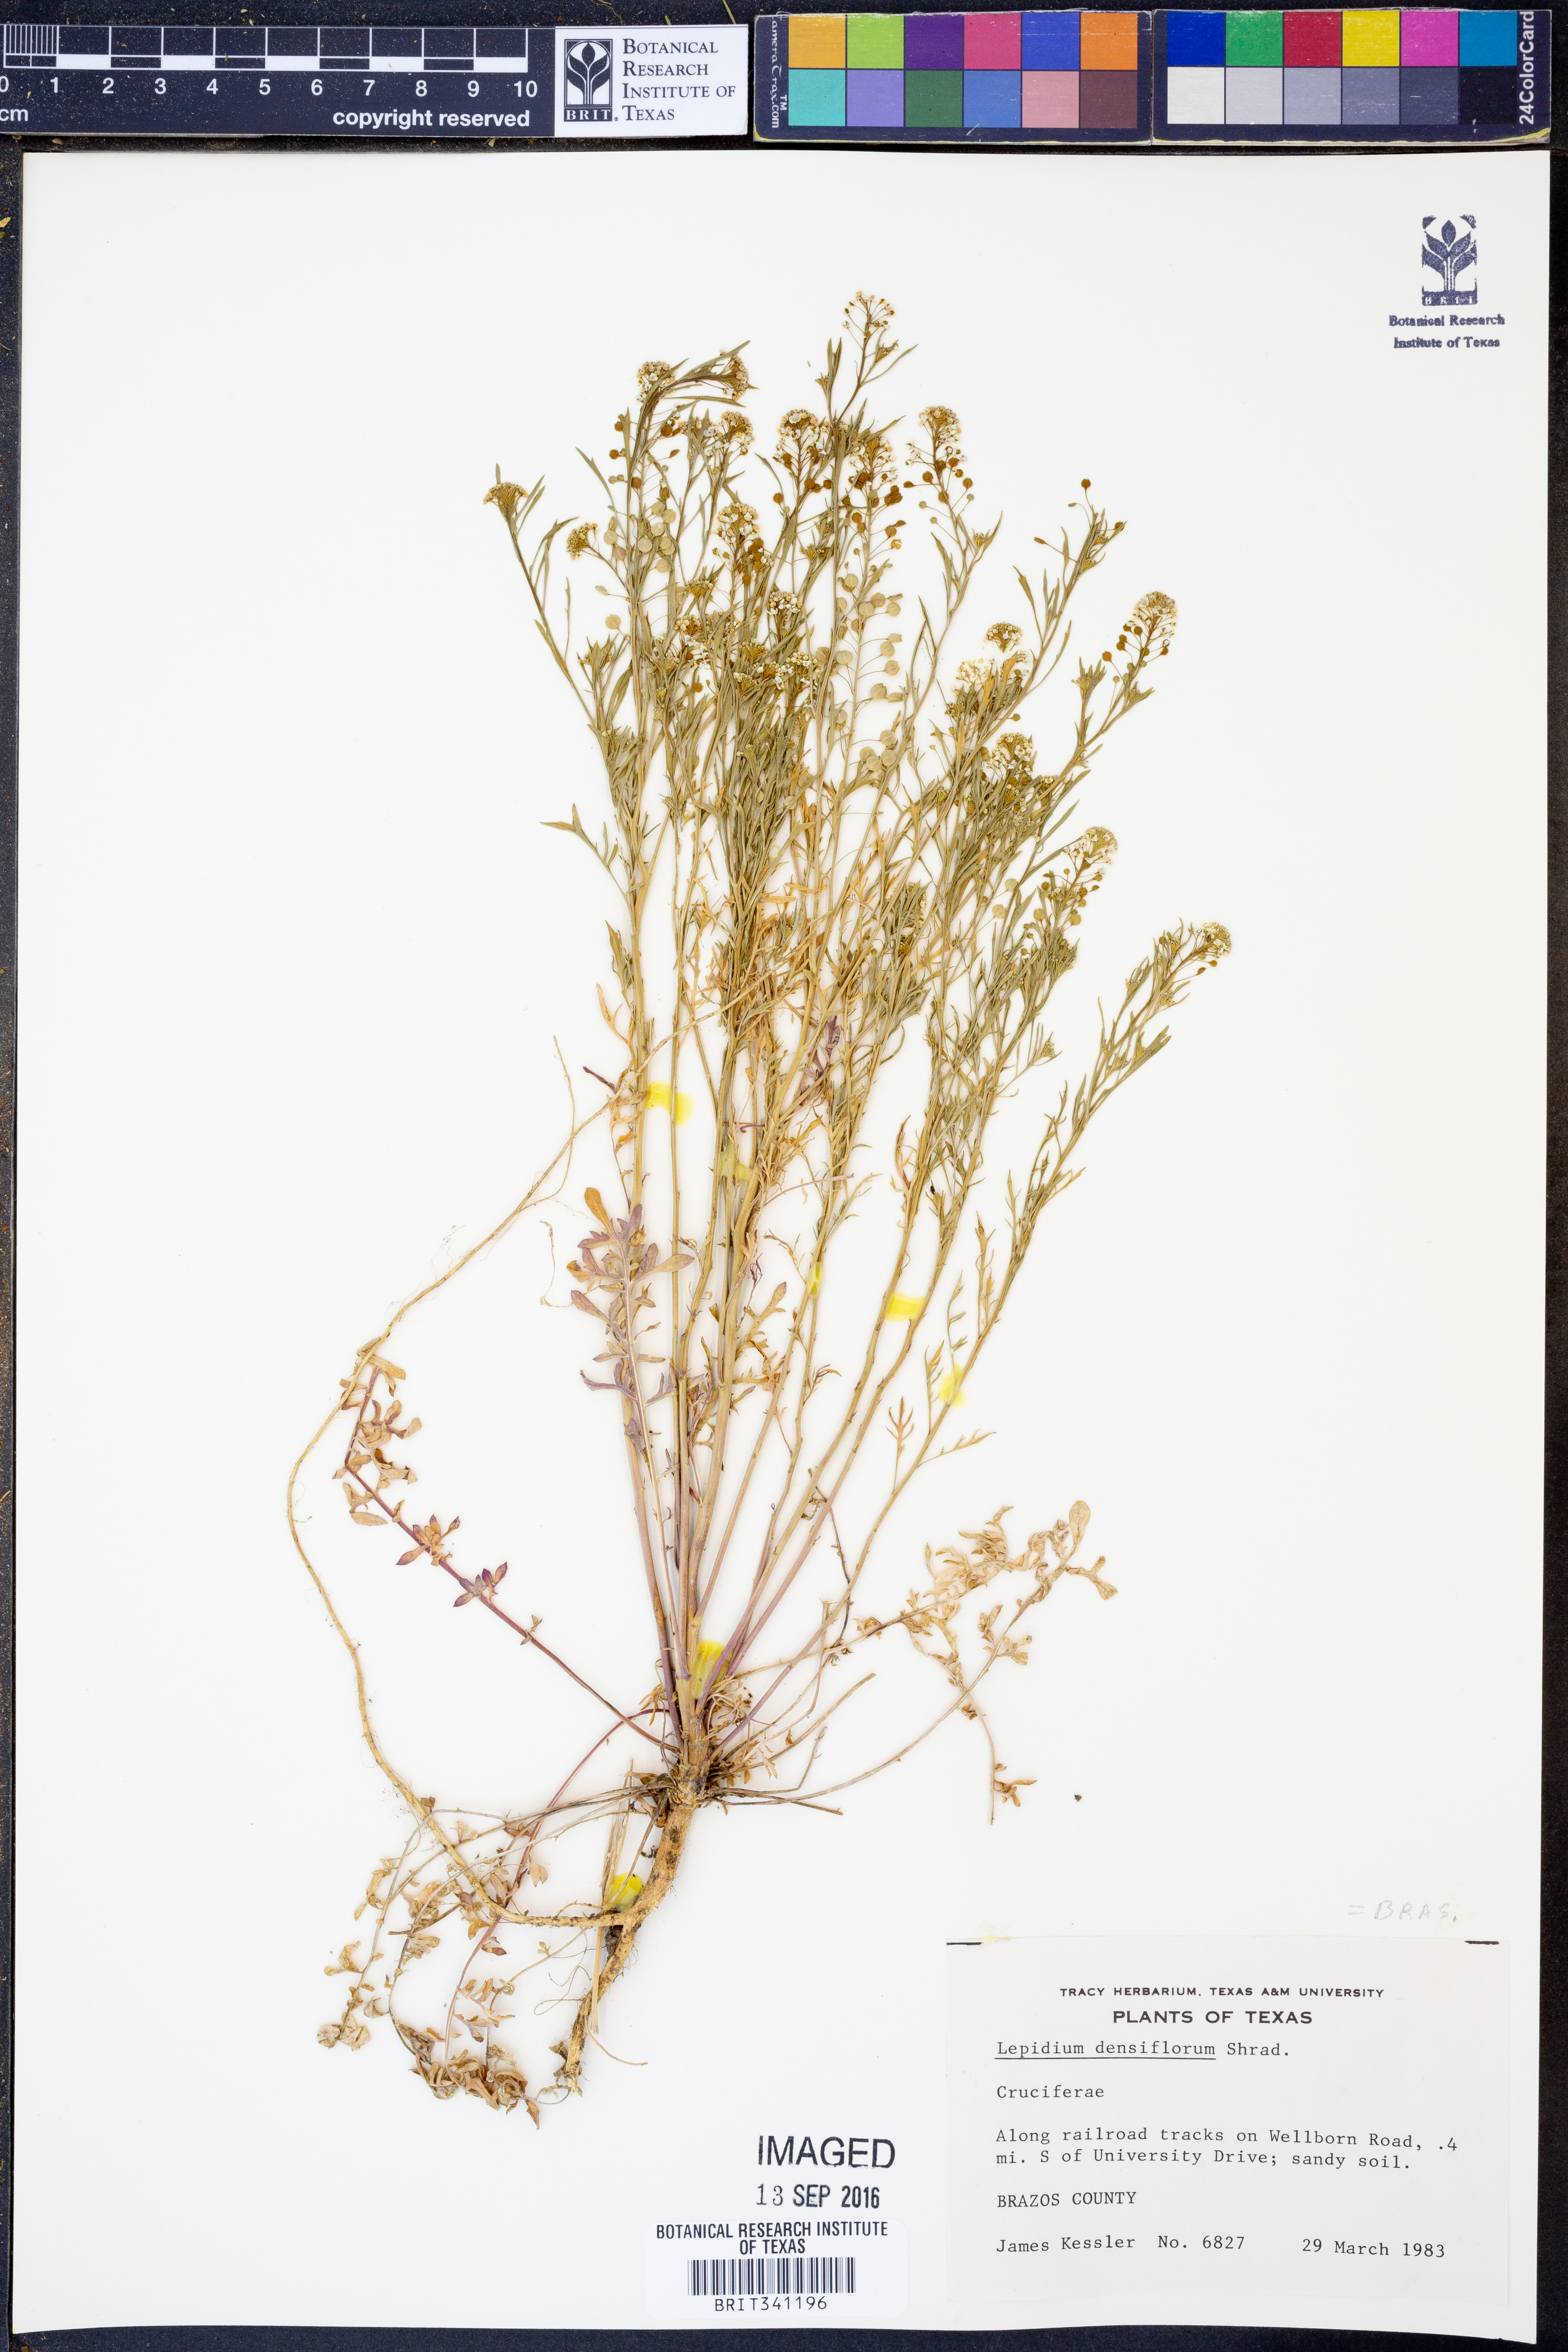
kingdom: Plantae
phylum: Tracheophyta
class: Magnoliopsida
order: Brassicales
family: Brassicaceae
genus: Lepidium
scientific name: Lepidium densiflorum
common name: Miner's pepperwort
